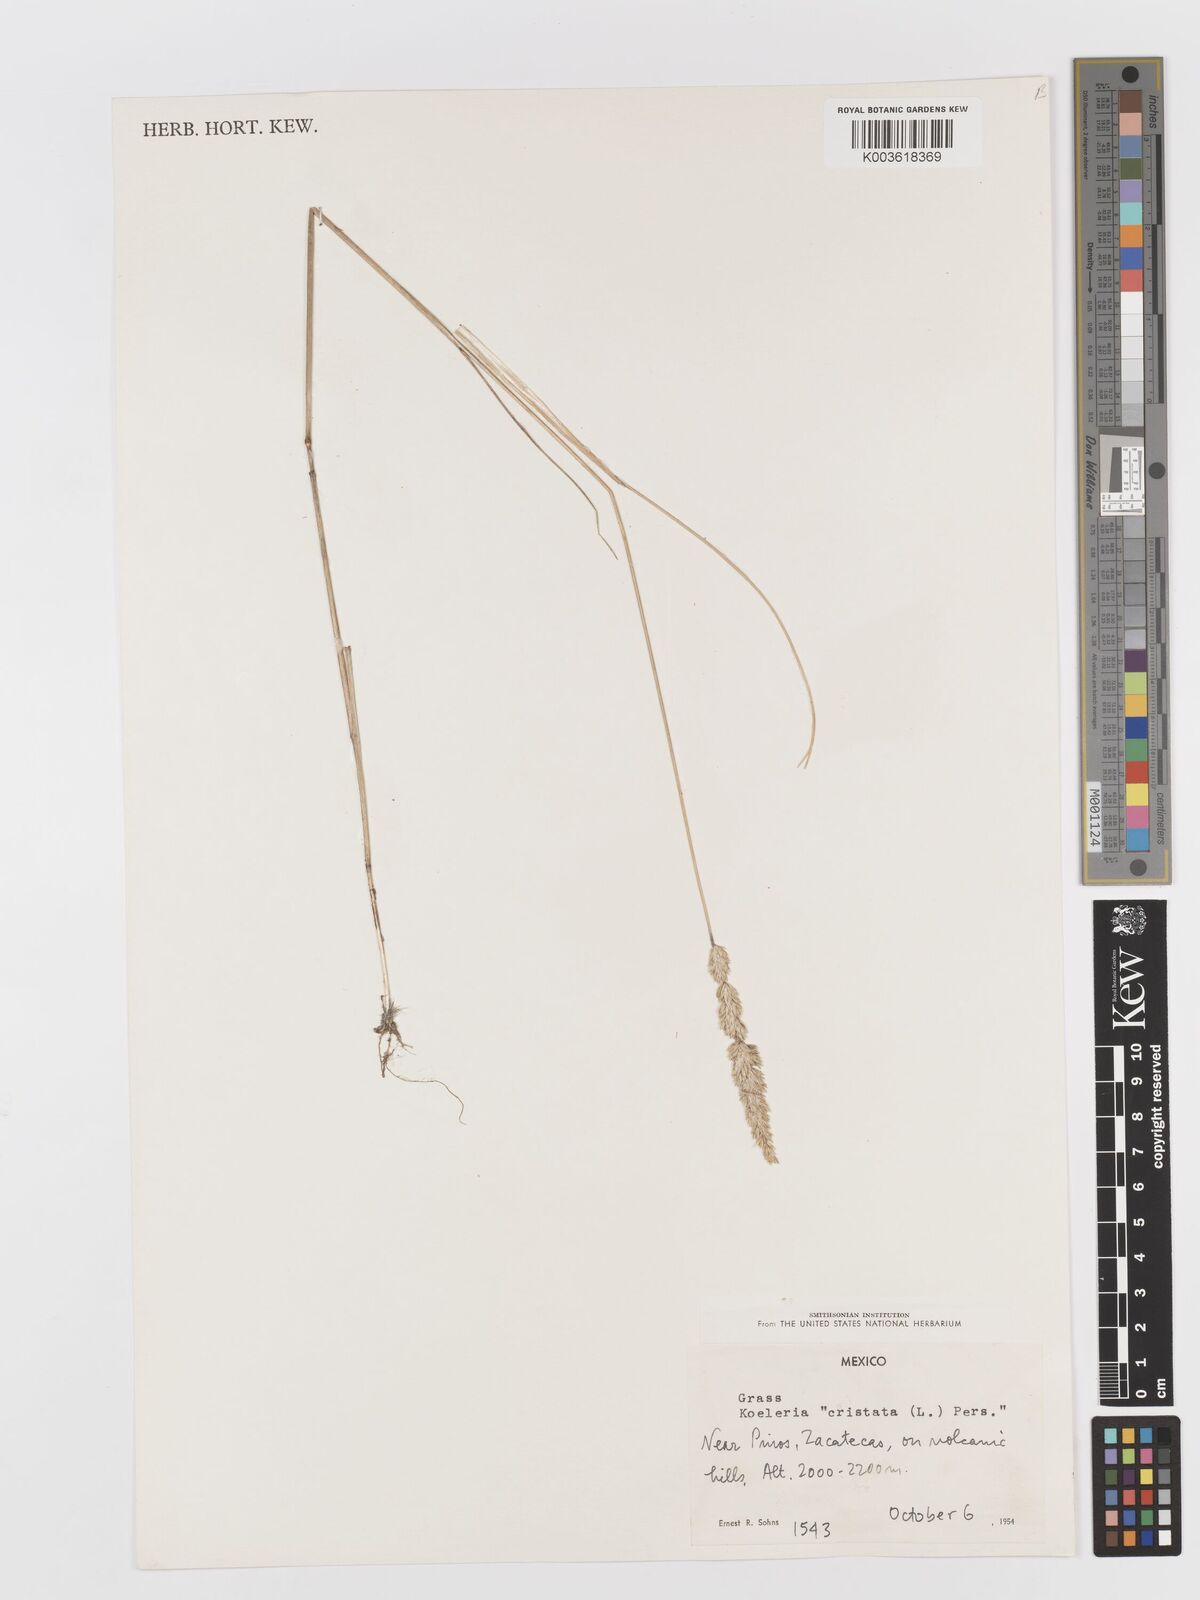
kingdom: Plantae
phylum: Tracheophyta
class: Liliopsida
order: Poales
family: Poaceae
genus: Koeleria
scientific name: Koeleria pyramidata
